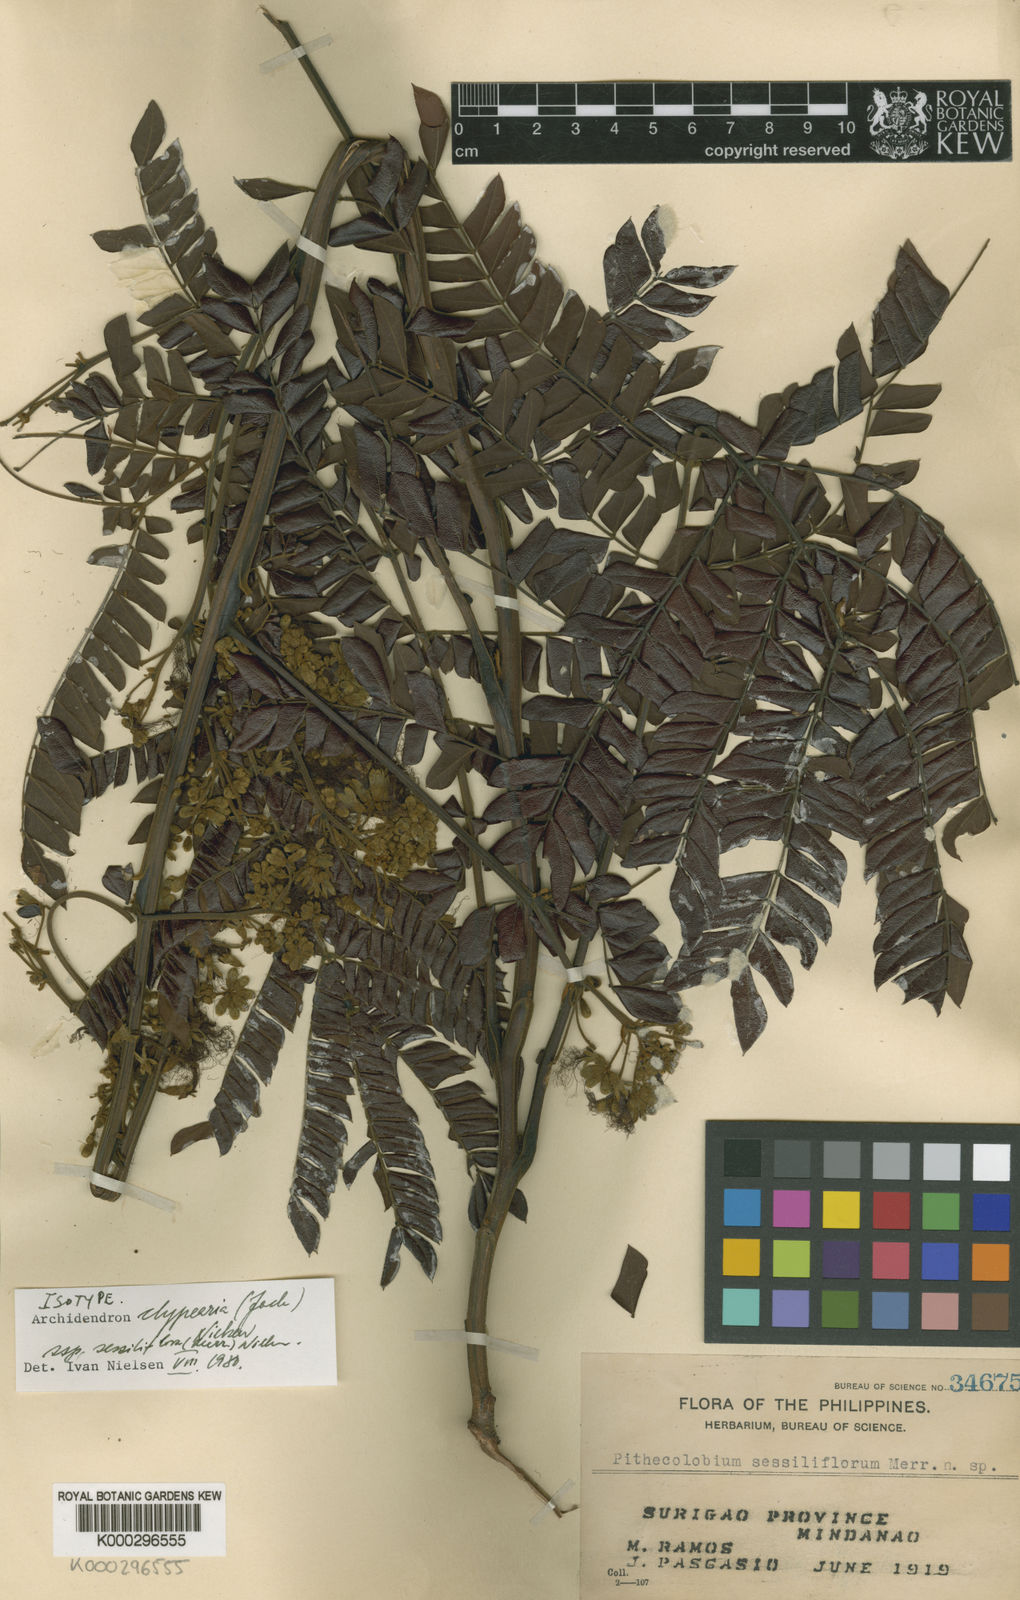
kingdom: Plantae
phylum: Tracheophyta
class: Magnoliopsida
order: Fabales
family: Fabaceae
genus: Archidendron
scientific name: Archidendron clypearia
